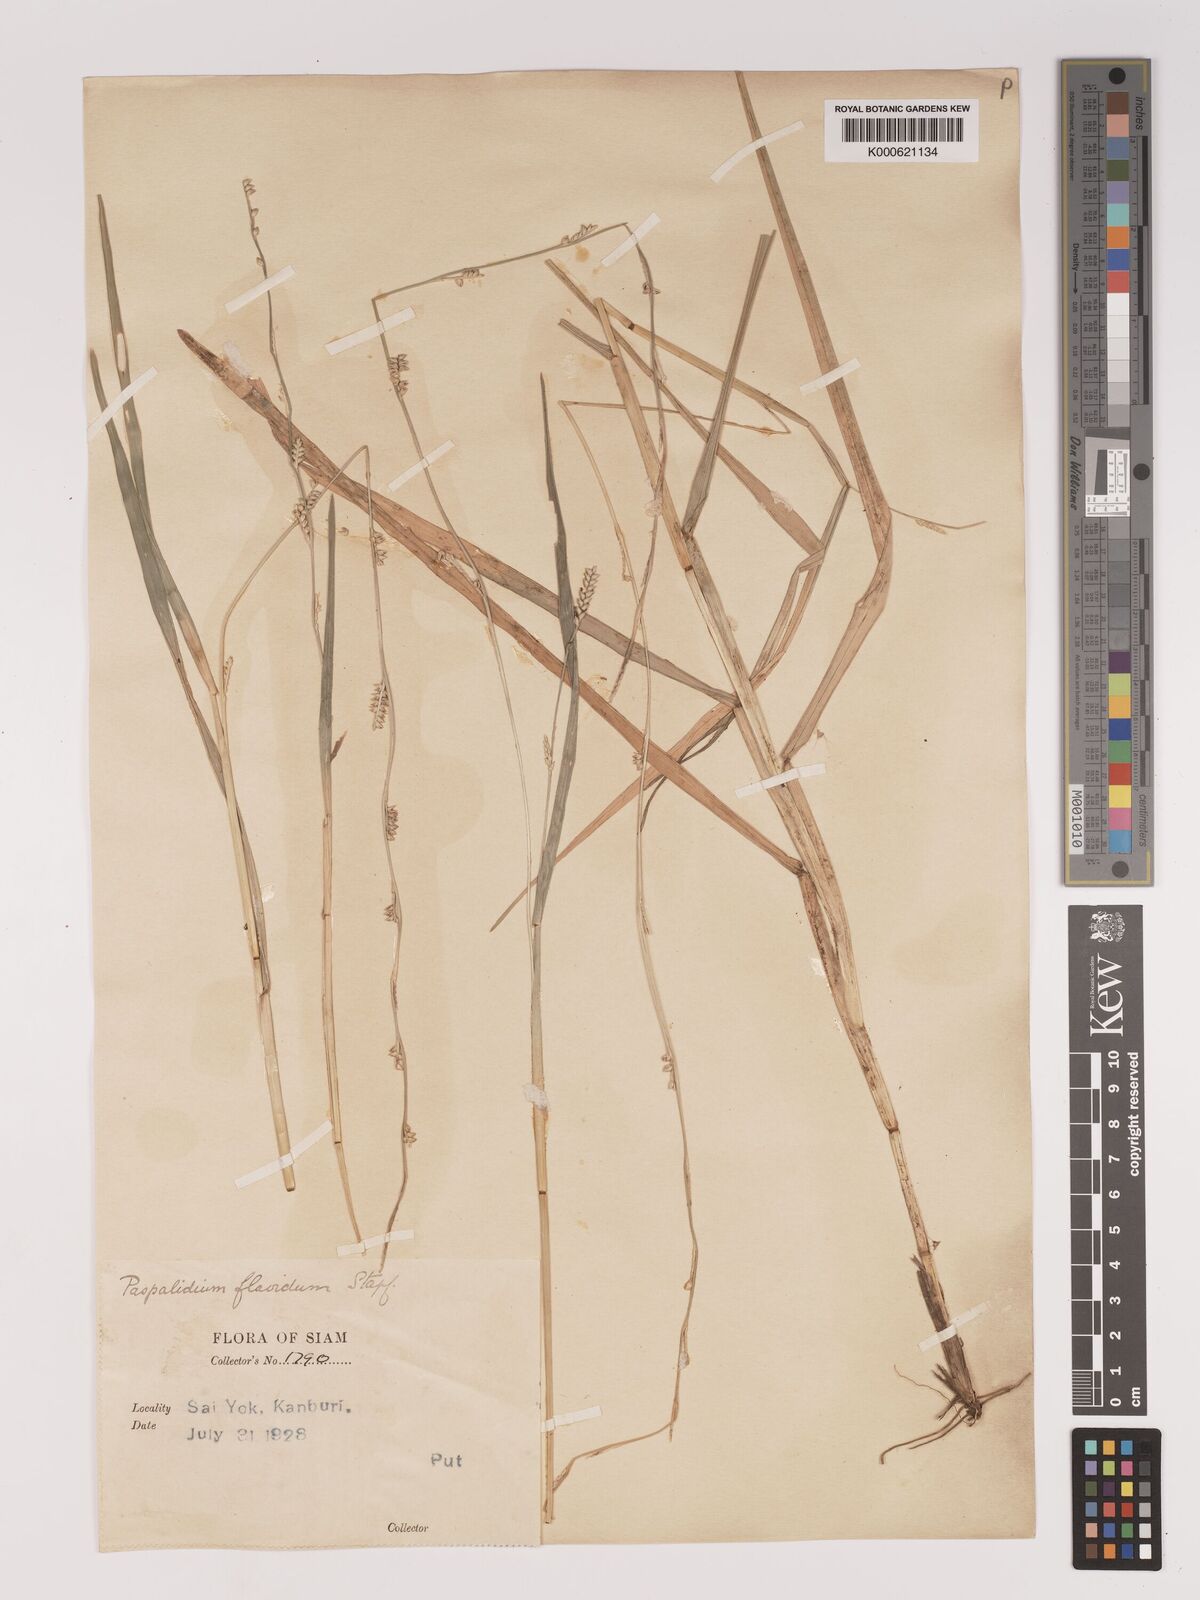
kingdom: Plantae
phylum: Tracheophyta
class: Liliopsida
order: Poales
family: Poaceae
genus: Setaria
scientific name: Setaria flavida
